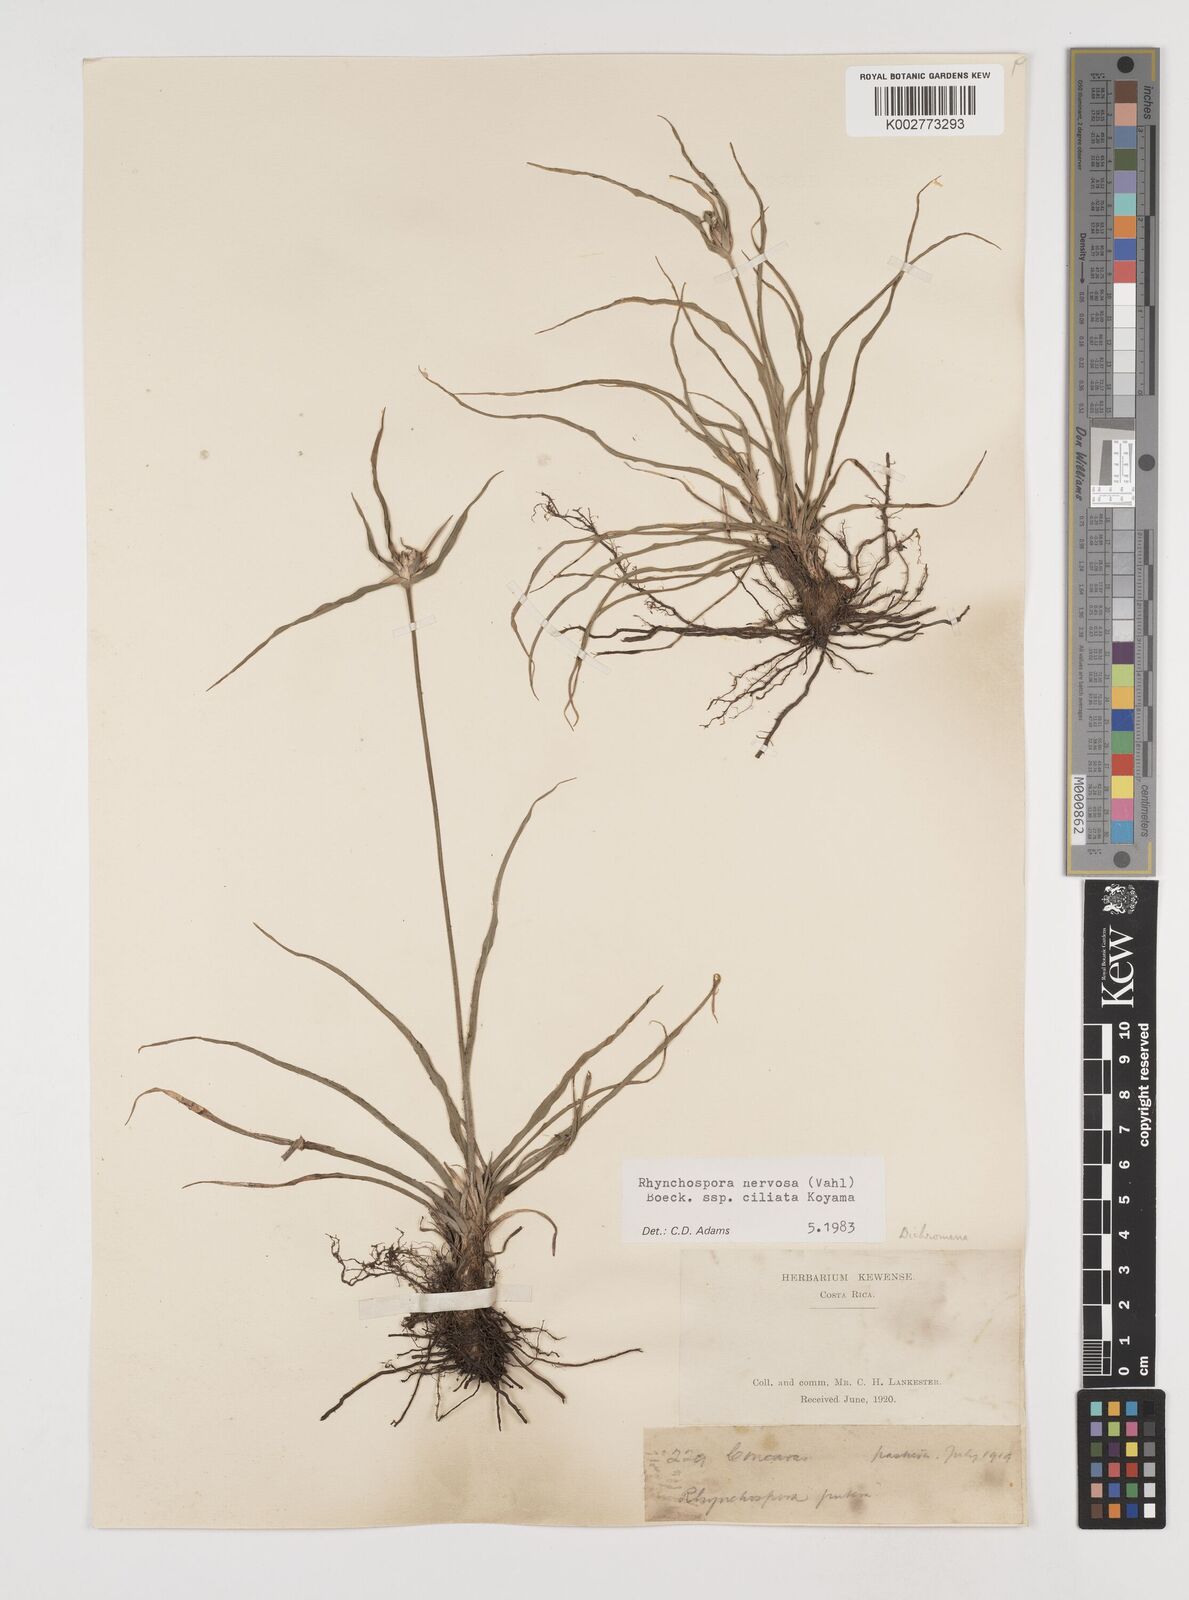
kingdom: Plantae
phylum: Tracheophyta
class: Liliopsida
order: Poales
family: Cyperaceae
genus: Rhynchospora
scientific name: Rhynchospora pura
